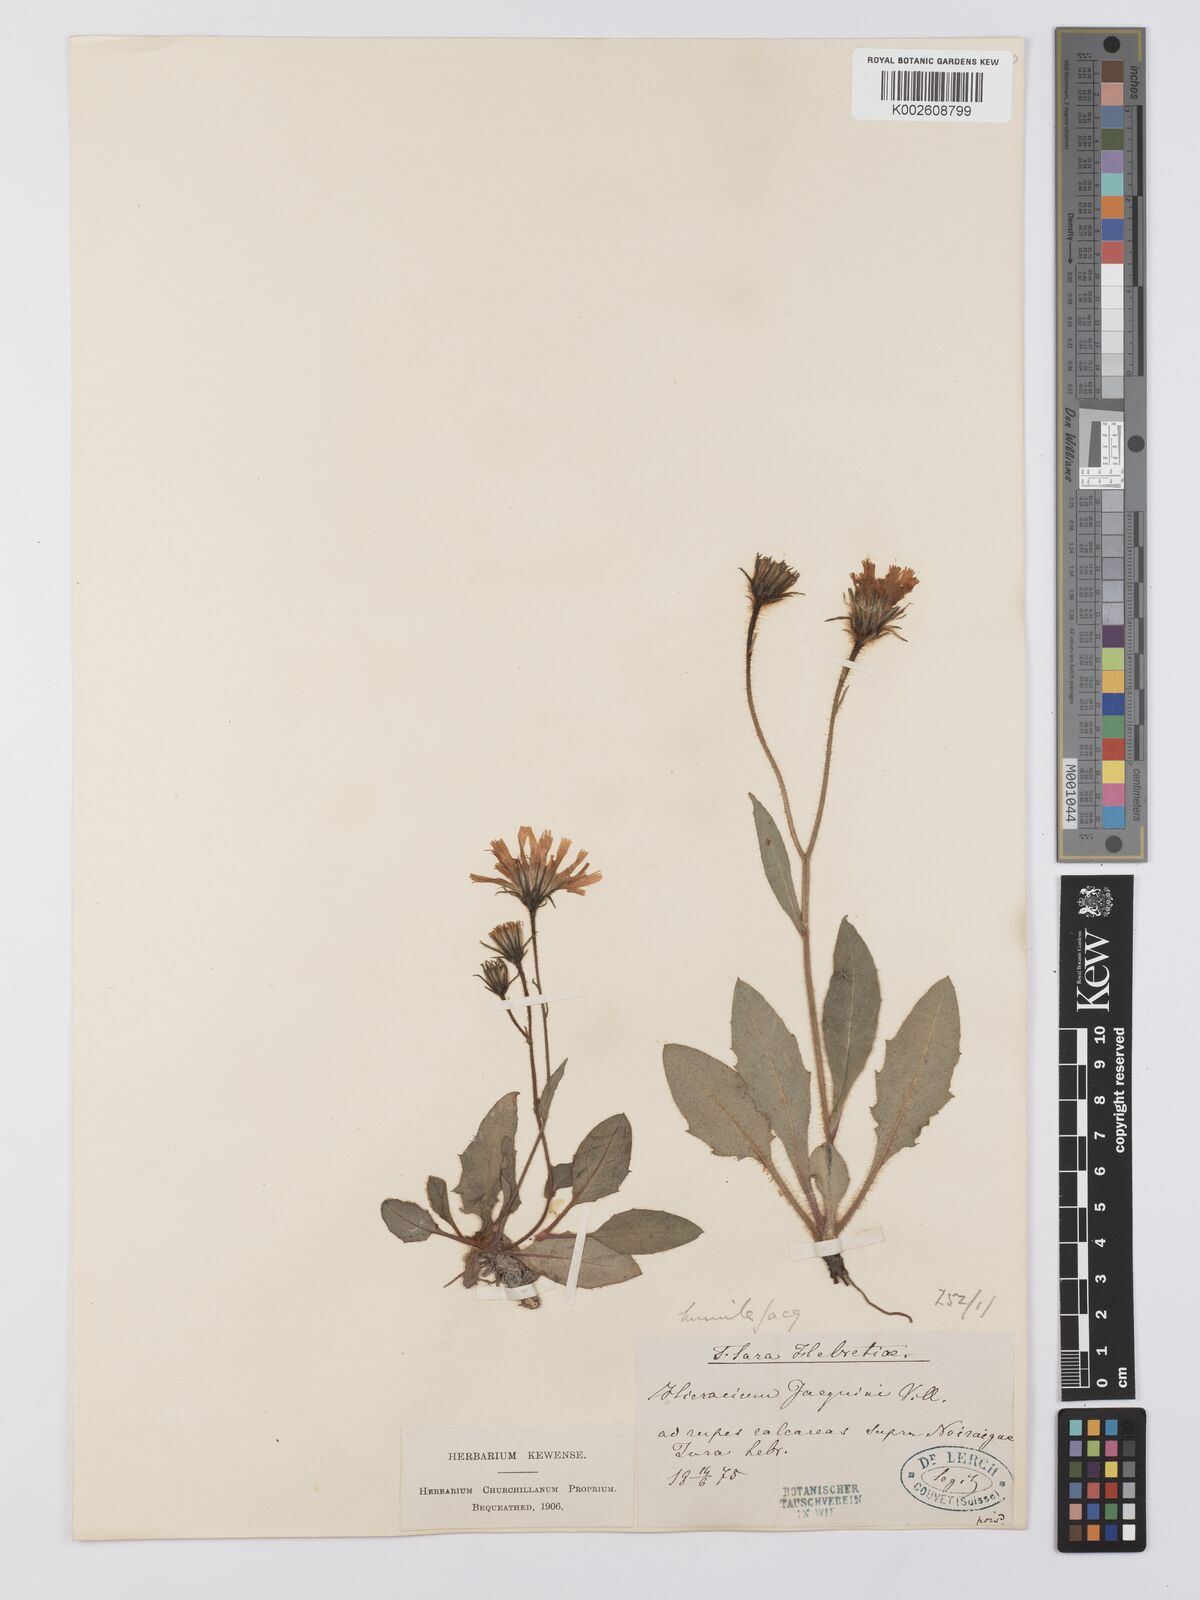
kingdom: Plantae
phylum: Tracheophyta
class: Magnoliopsida
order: Asterales
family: Asteraceae
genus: Hieracium
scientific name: Hieracium humile
